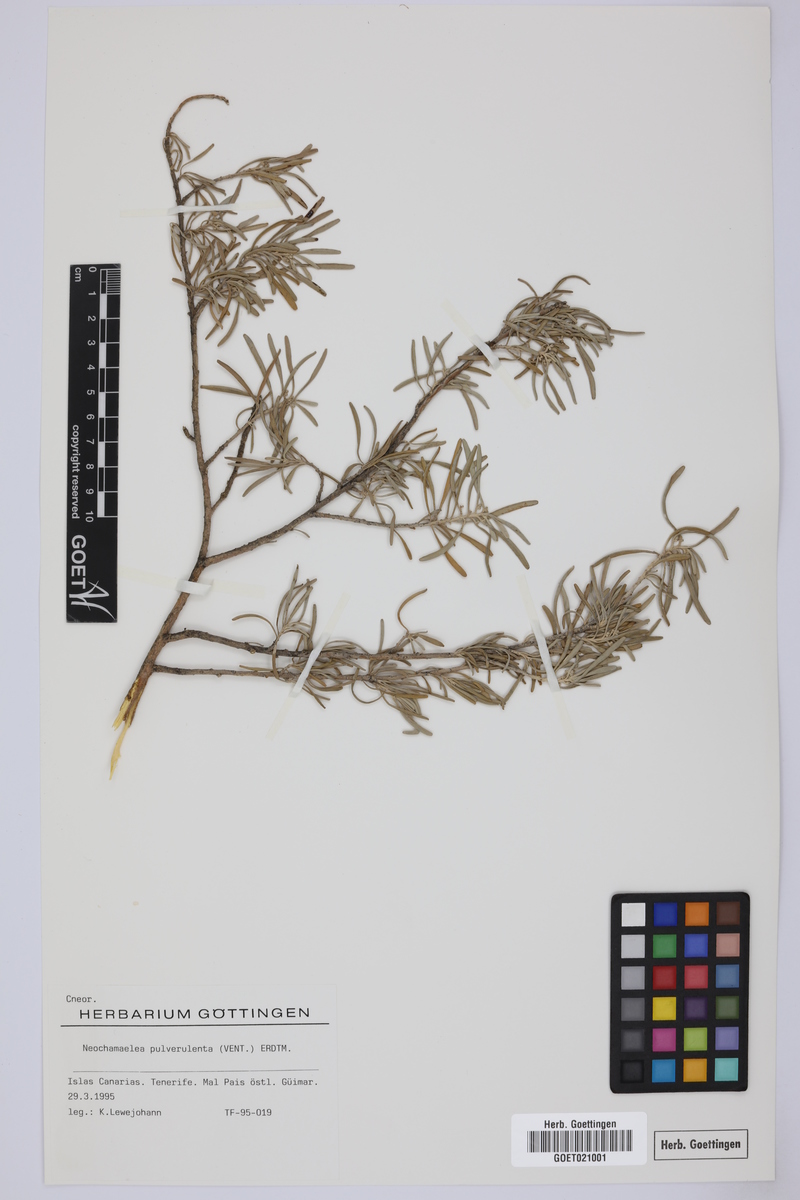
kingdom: Plantae
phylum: Tracheophyta
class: Magnoliopsida
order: Sapindales
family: Rutaceae
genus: Cneorum
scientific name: Cneorum pulverulentum
